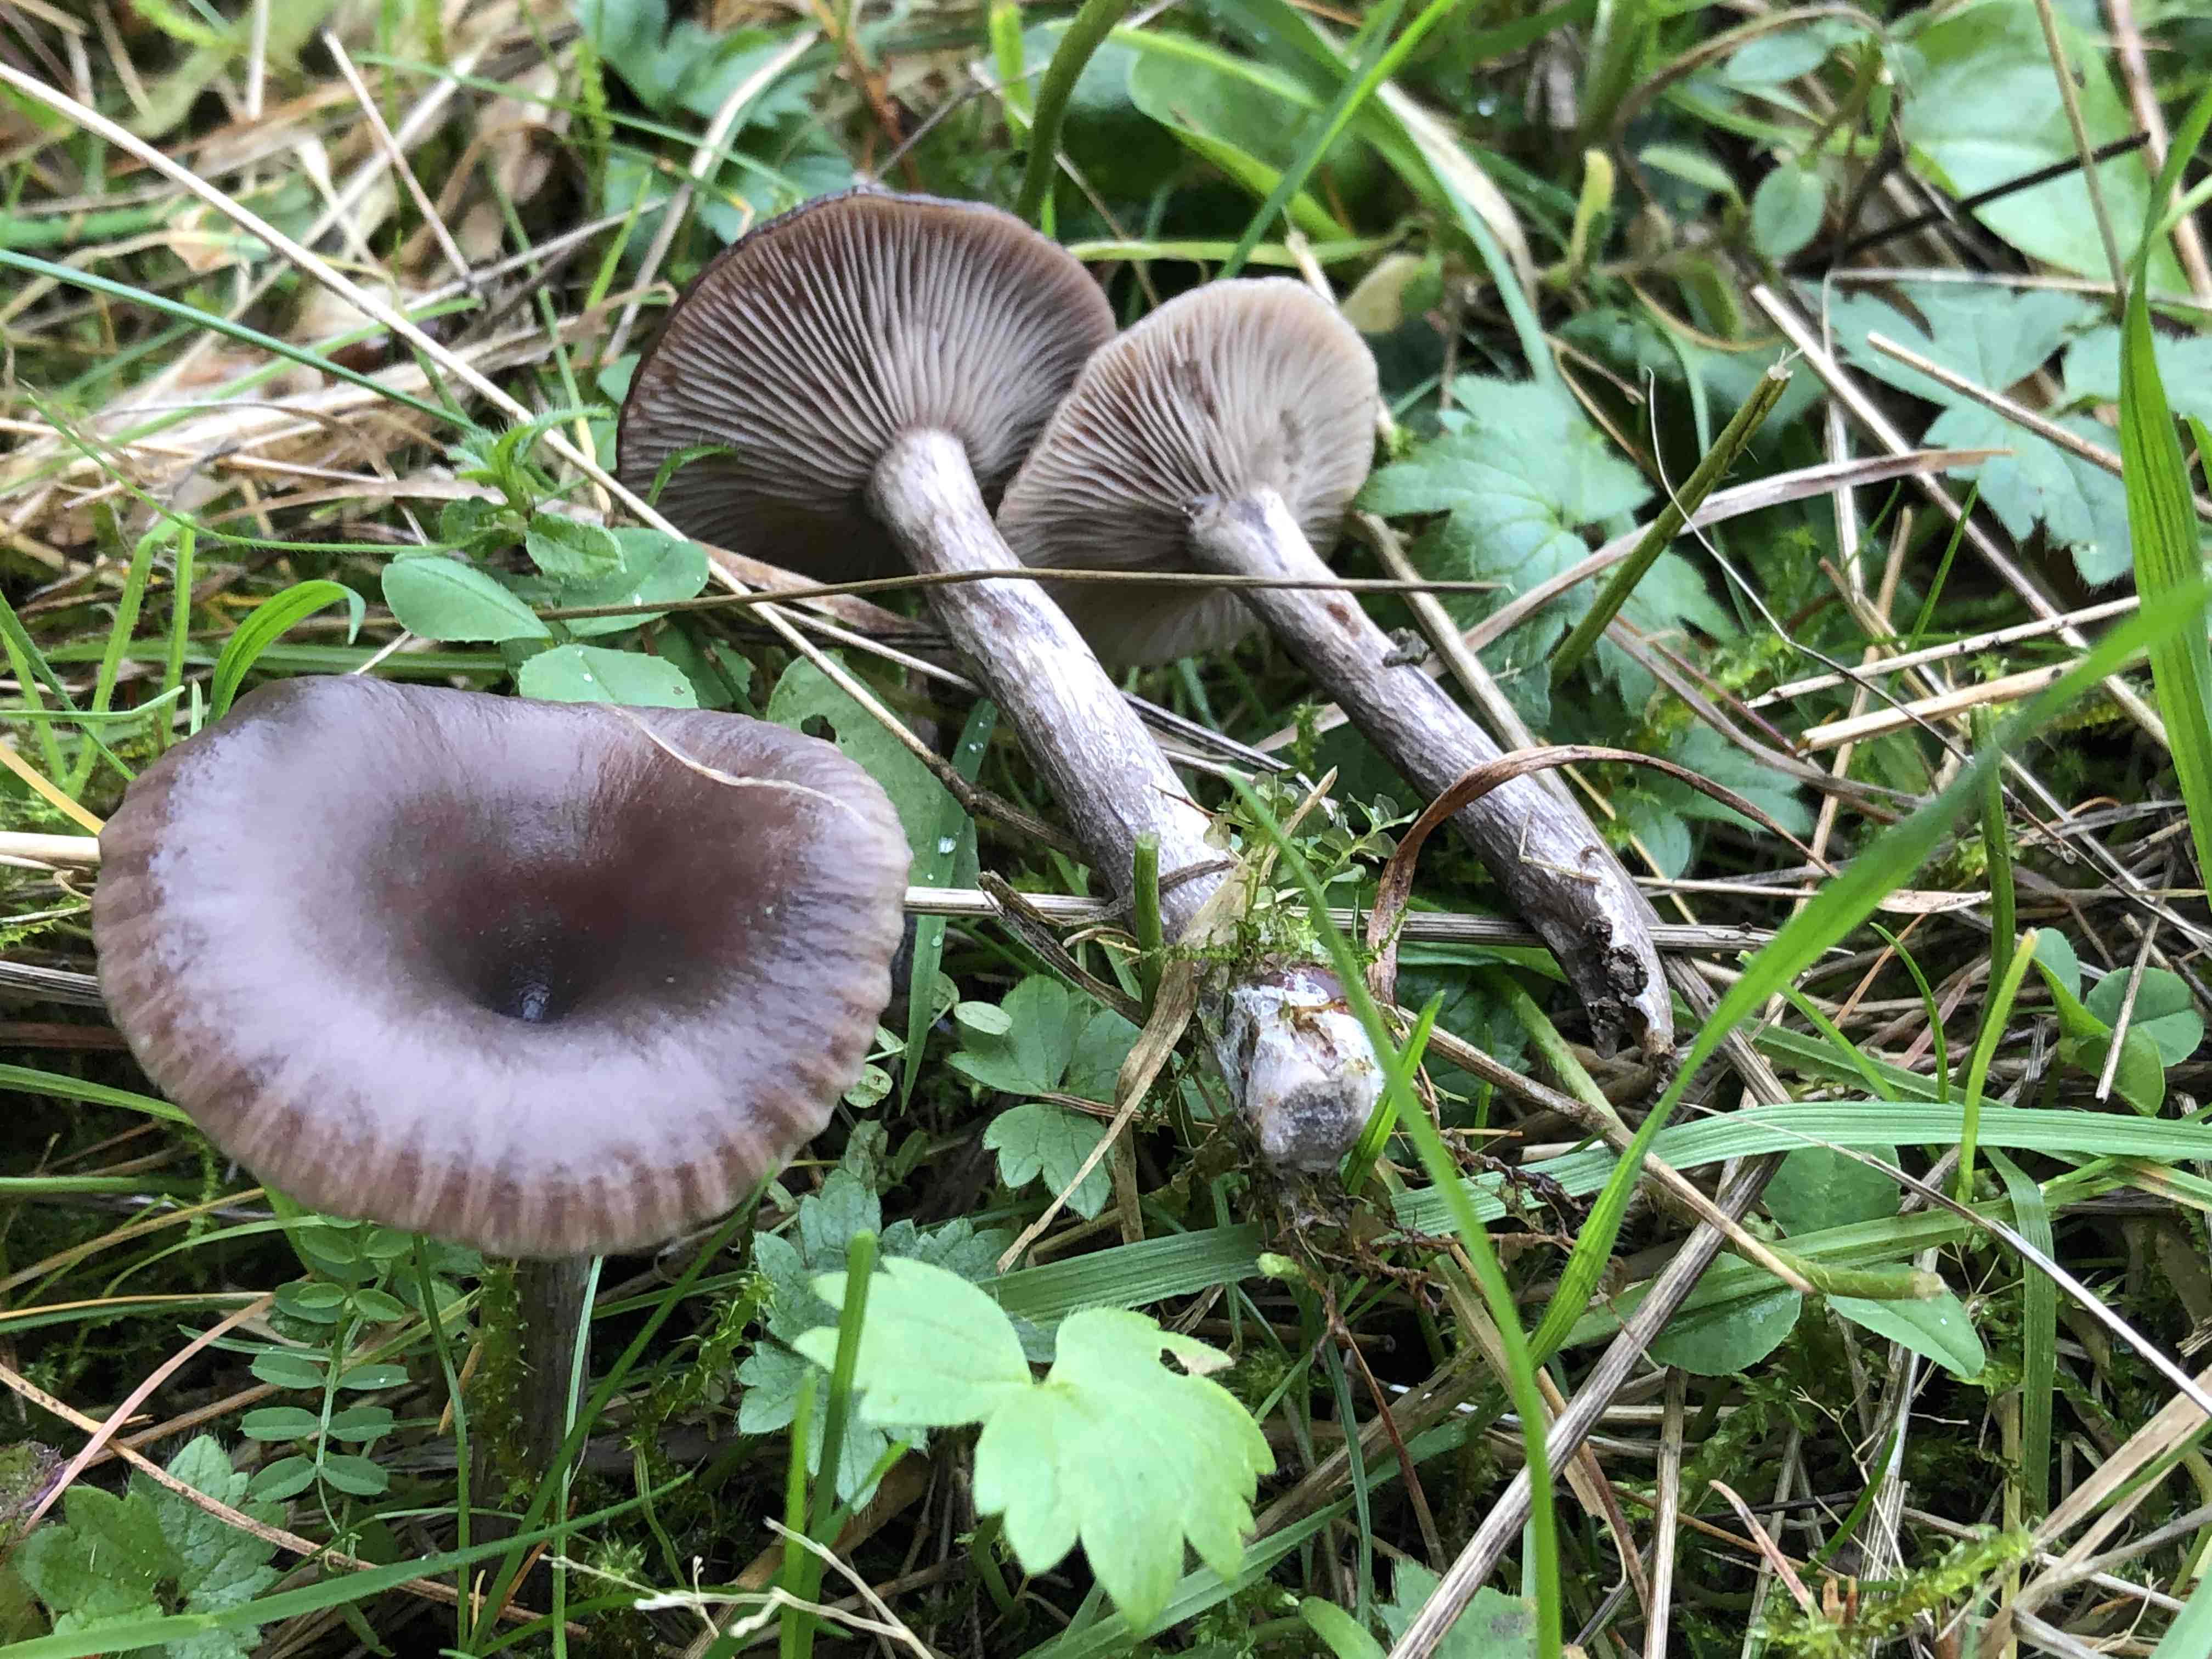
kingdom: Fungi
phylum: Basidiomycota
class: Agaricomycetes
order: Agaricales
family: Pseudoclitocybaceae
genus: Pseudoclitocybe
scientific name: Pseudoclitocybe cyathiformis
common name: almindelig bægertragthat
